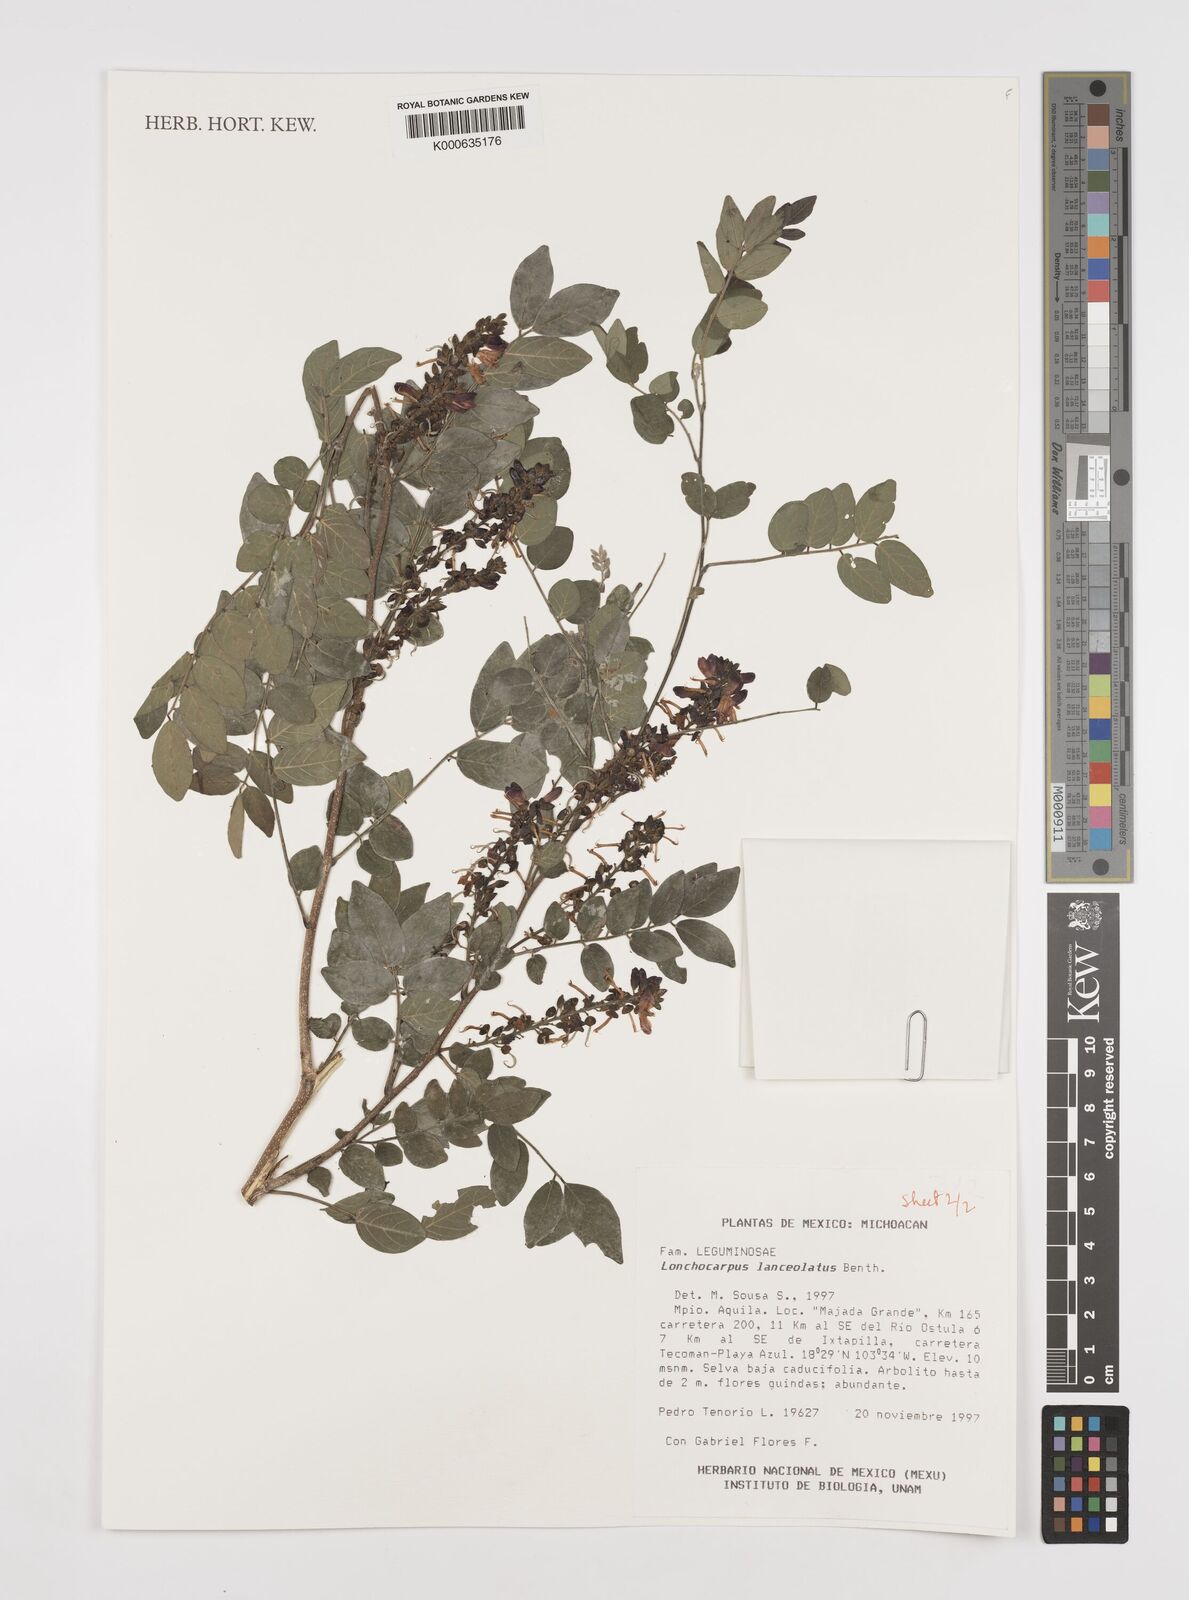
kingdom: Plantae
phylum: Tracheophyta
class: Magnoliopsida
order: Fabales
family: Fabaceae
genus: Lonchocarpus
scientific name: Lonchocarpus lanceolatus
